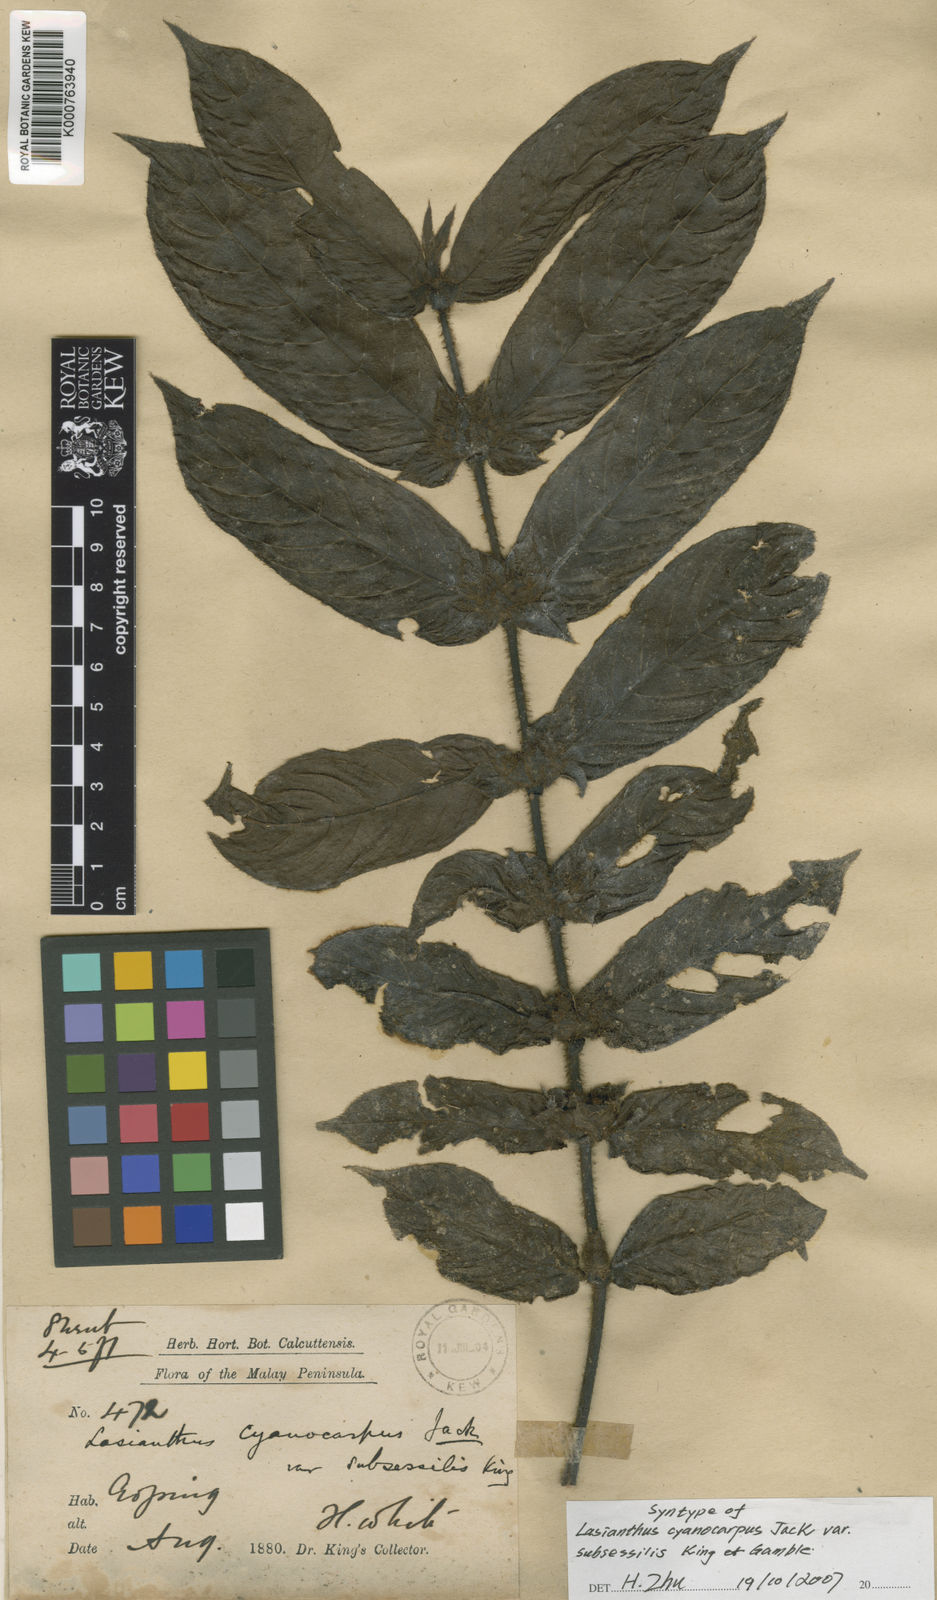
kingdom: Plantae
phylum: Tracheophyta
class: Magnoliopsida
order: Gentianales
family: Rubiaceae
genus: Lasianthus
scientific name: Lasianthus cyanocarpus
